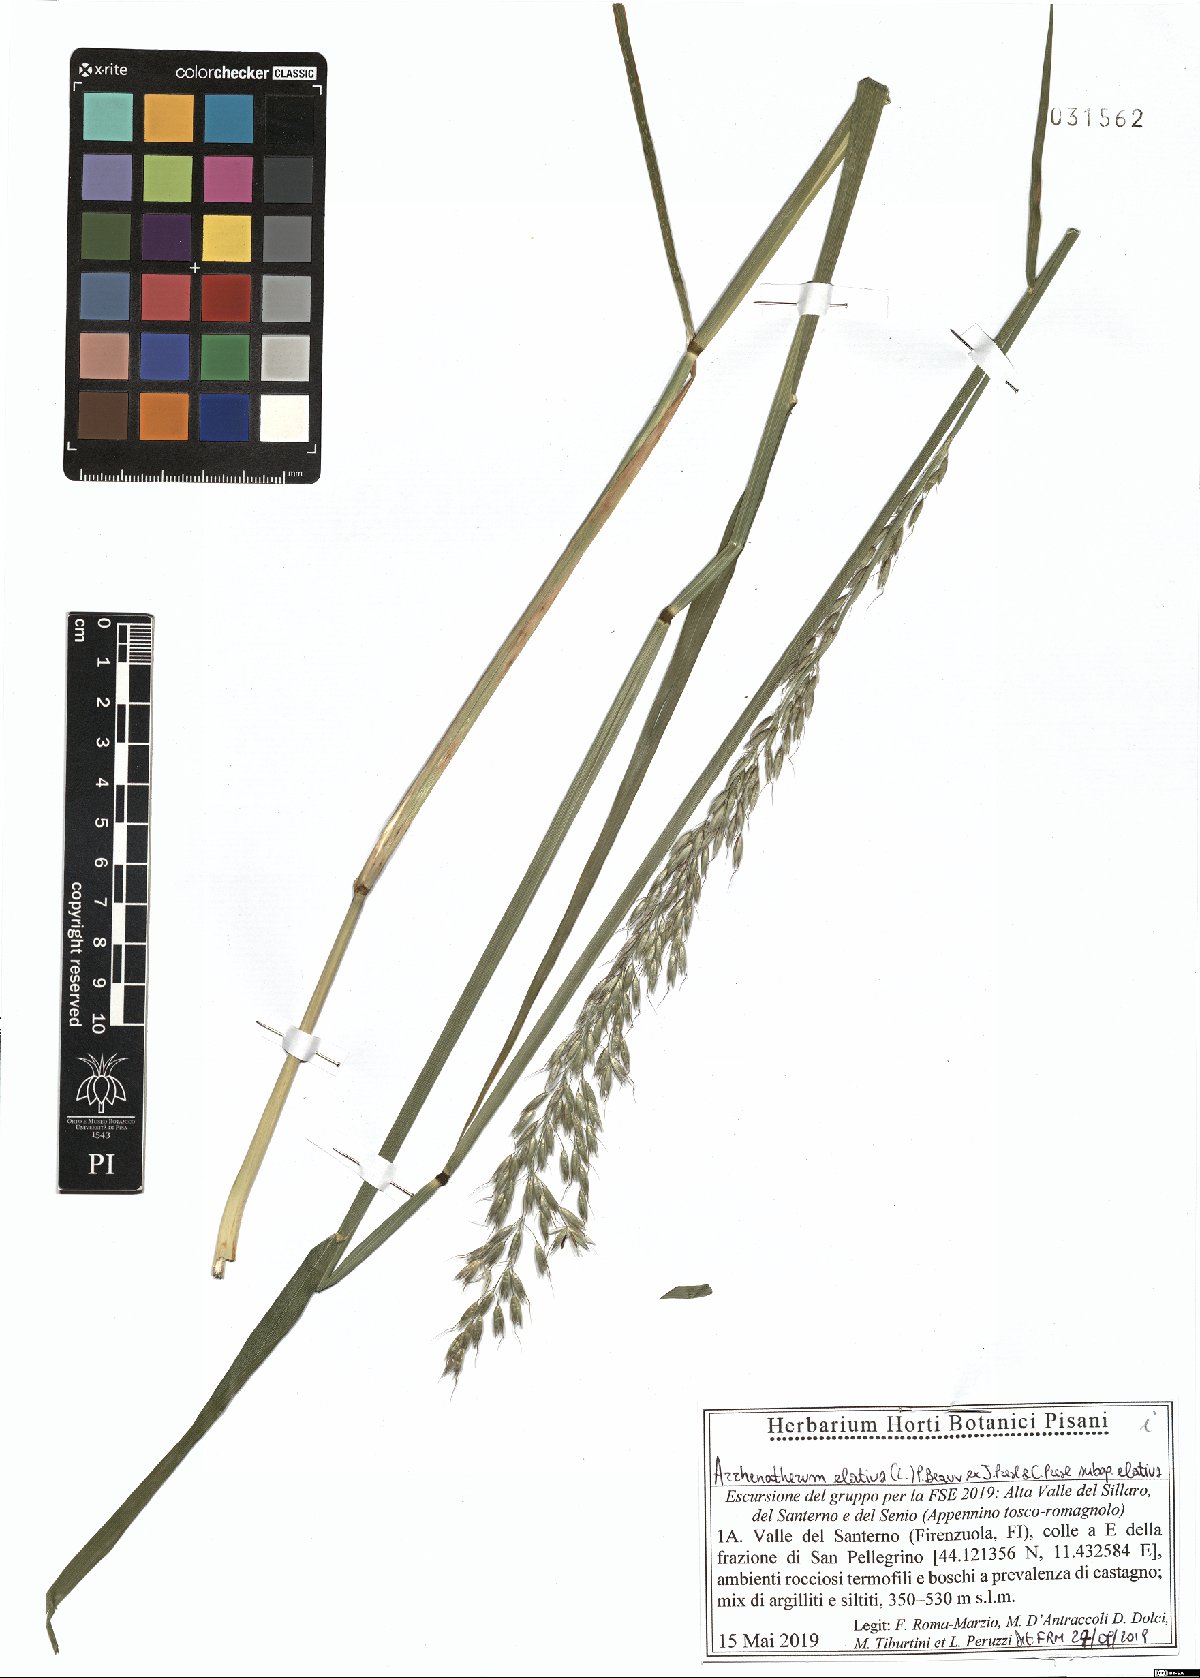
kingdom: Plantae
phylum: Tracheophyta
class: Liliopsida
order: Poales
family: Poaceae
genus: Arrhenatherum
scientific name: Arrhenatherum elatius
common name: Tall oatgrass
